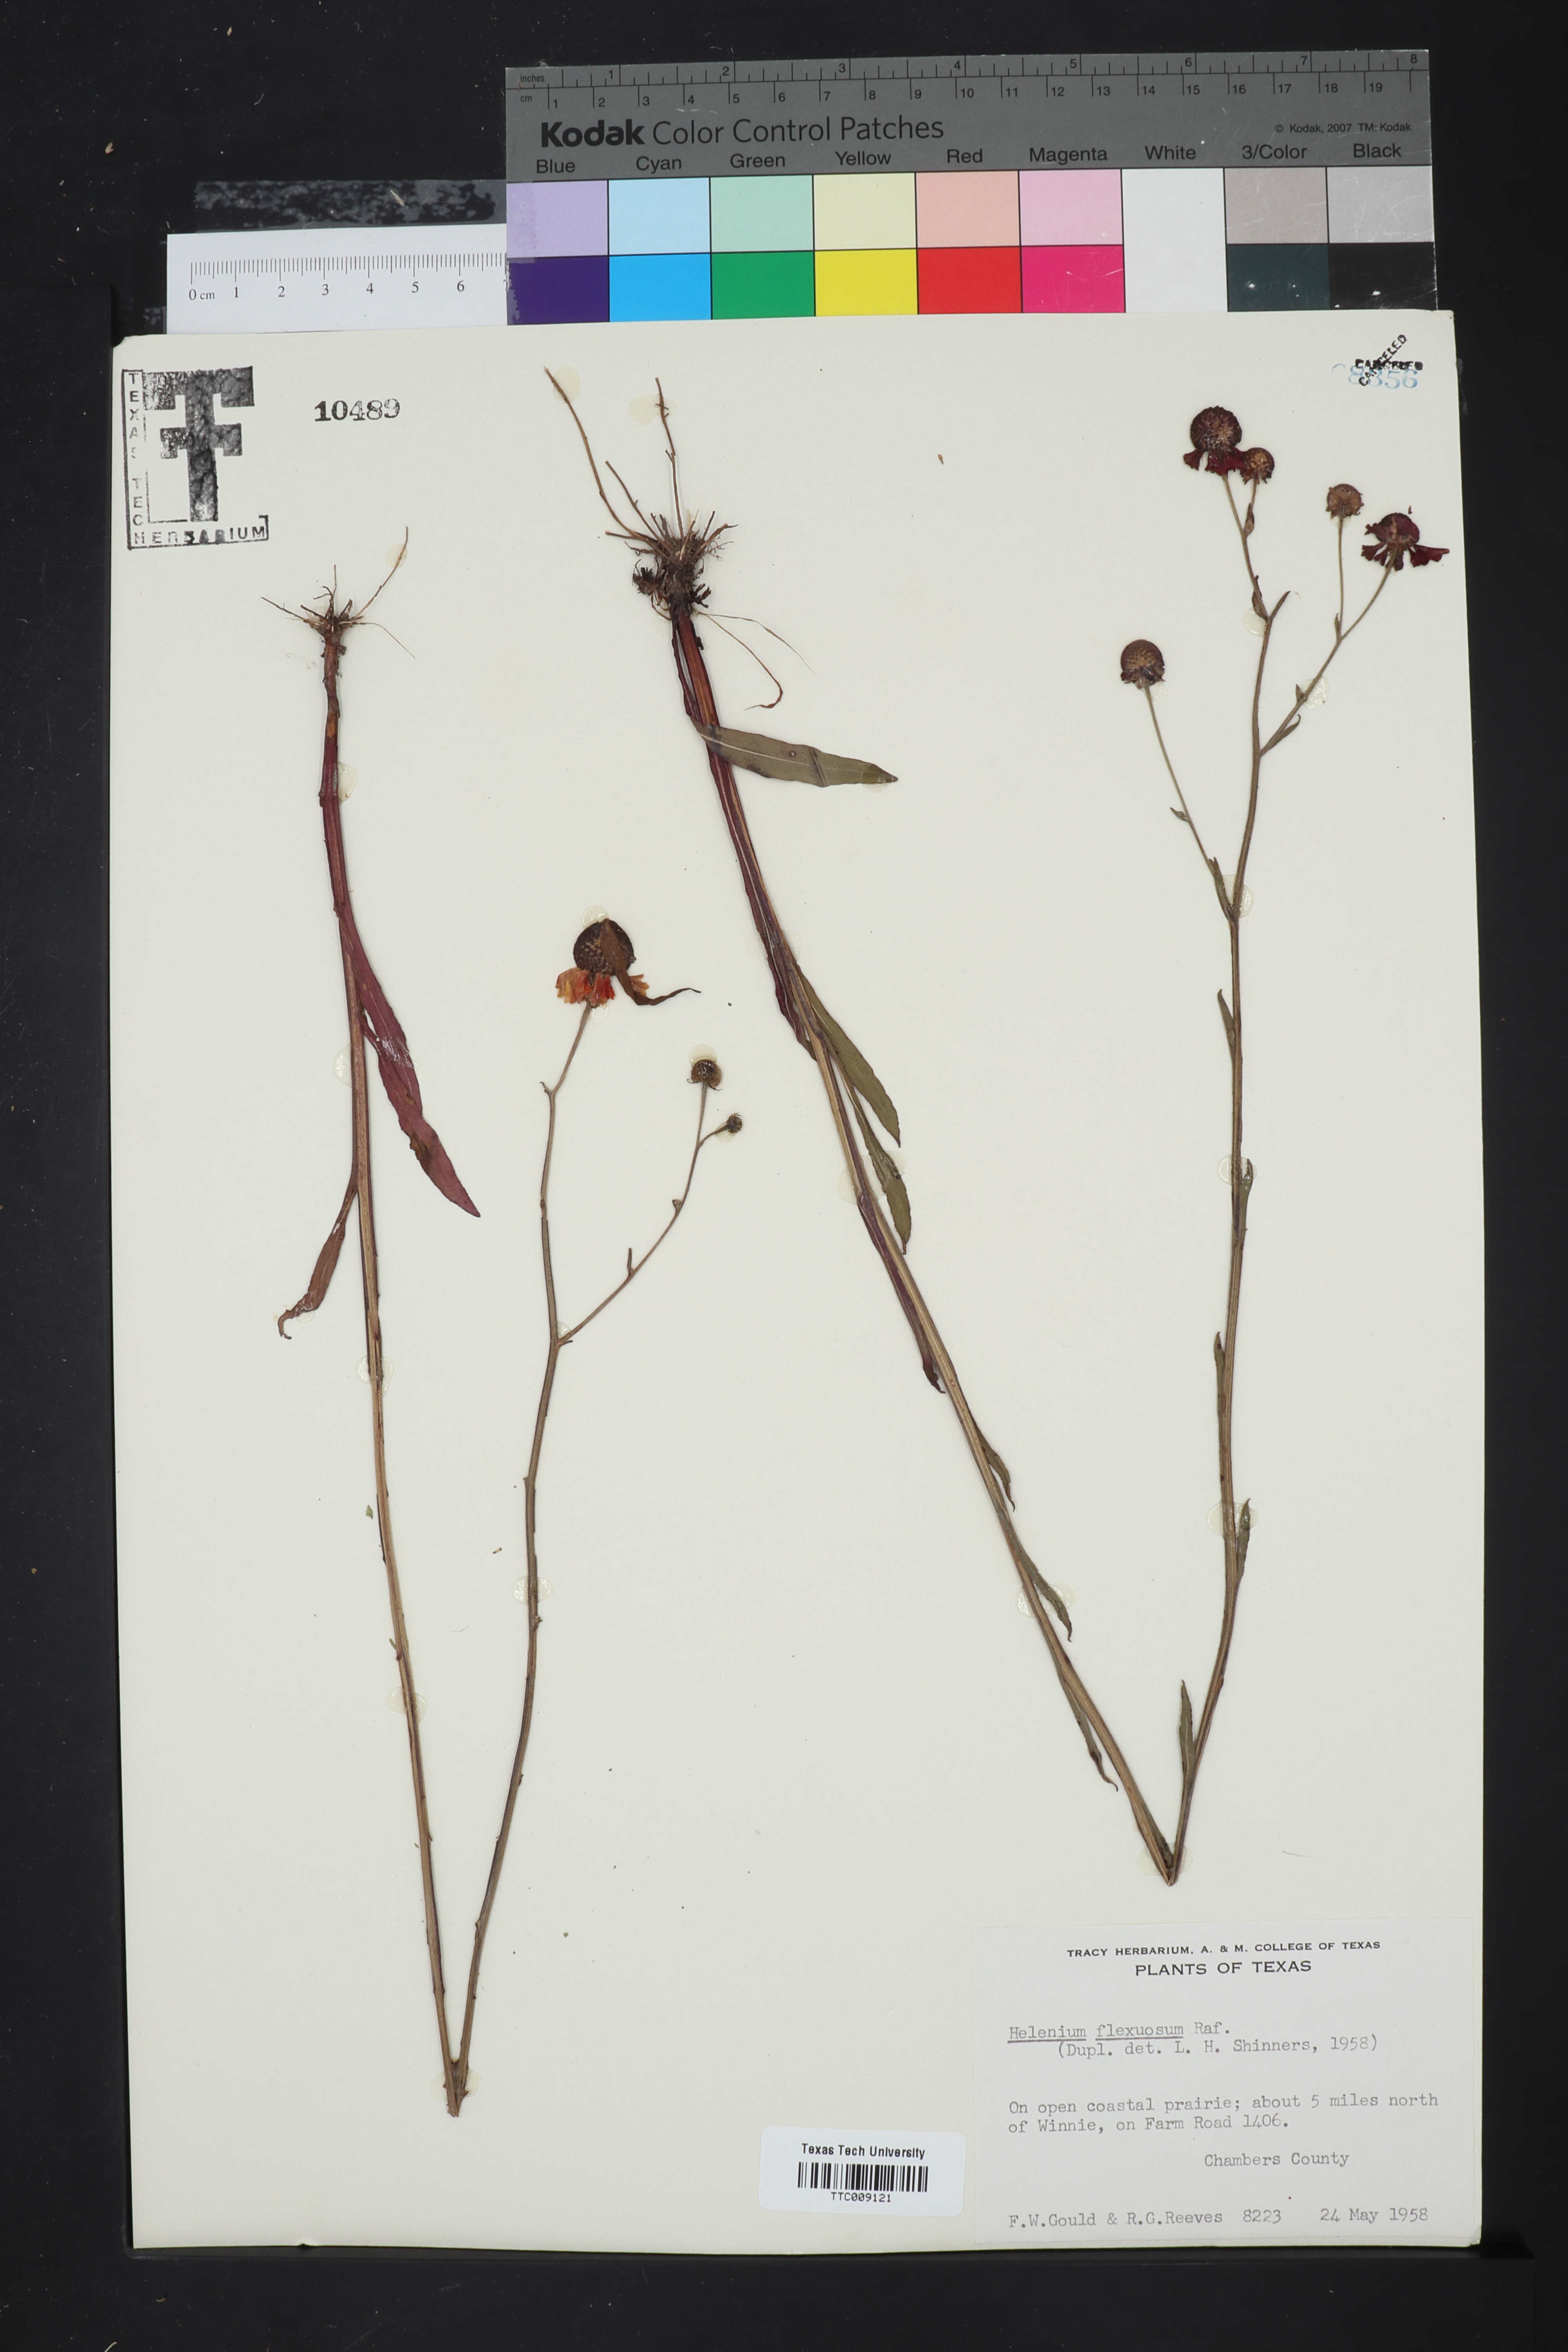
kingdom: Plantae
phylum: Tracheophyta
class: Magnoliopsida
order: Asterales
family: Asteraceae
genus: Helenium
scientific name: Helenium flexuosum
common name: Naked-flowered sneezeweed
